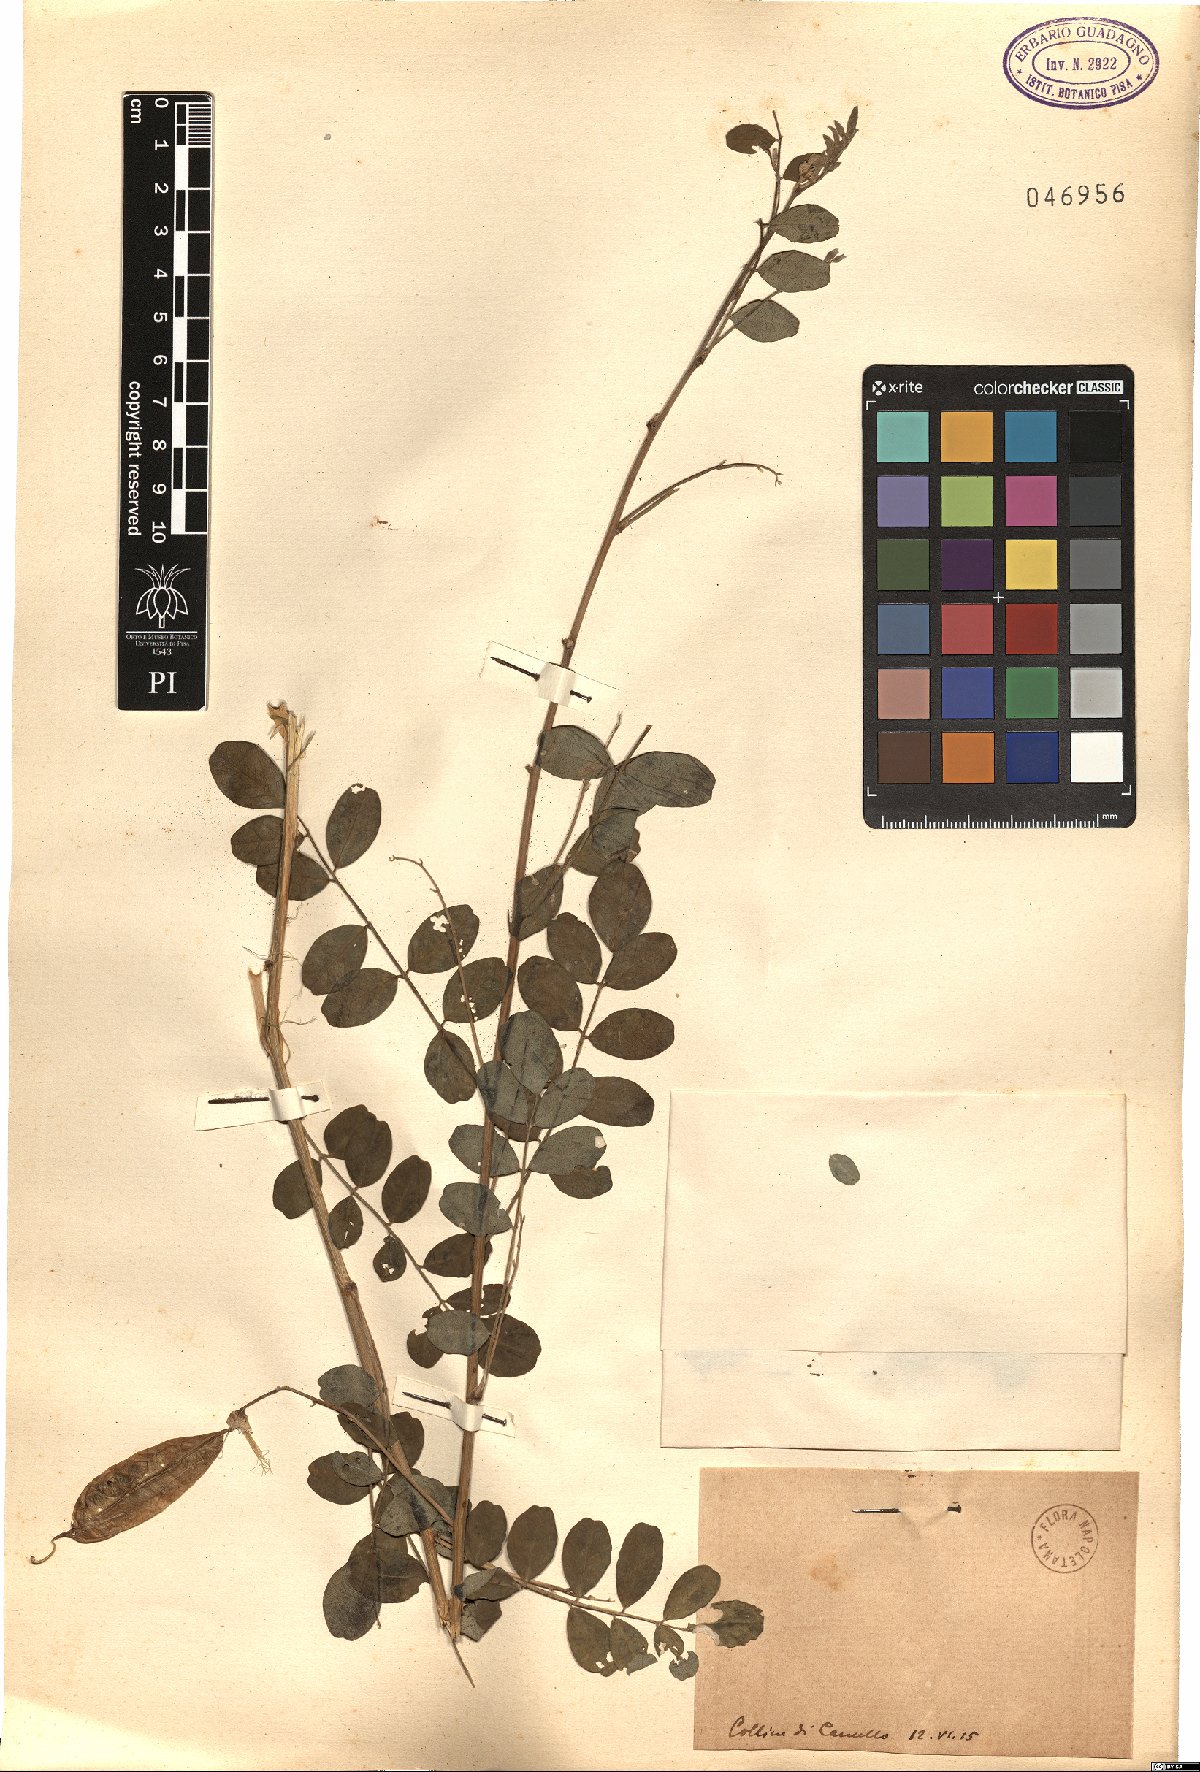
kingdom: Plantae
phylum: Tracheophyta
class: Magnoliopsida
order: Fabales
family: Fabaceae
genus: Colutea
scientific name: Colutea
